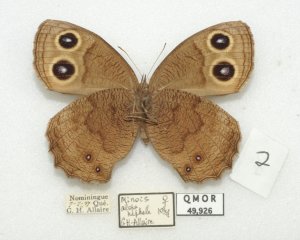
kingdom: Animalia
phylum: Arthropoda
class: Insecta
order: Lepidoptera
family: Nymphalidae
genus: Cercyonis
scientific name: Cercyonis pegala
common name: Common Wood-Nymph
